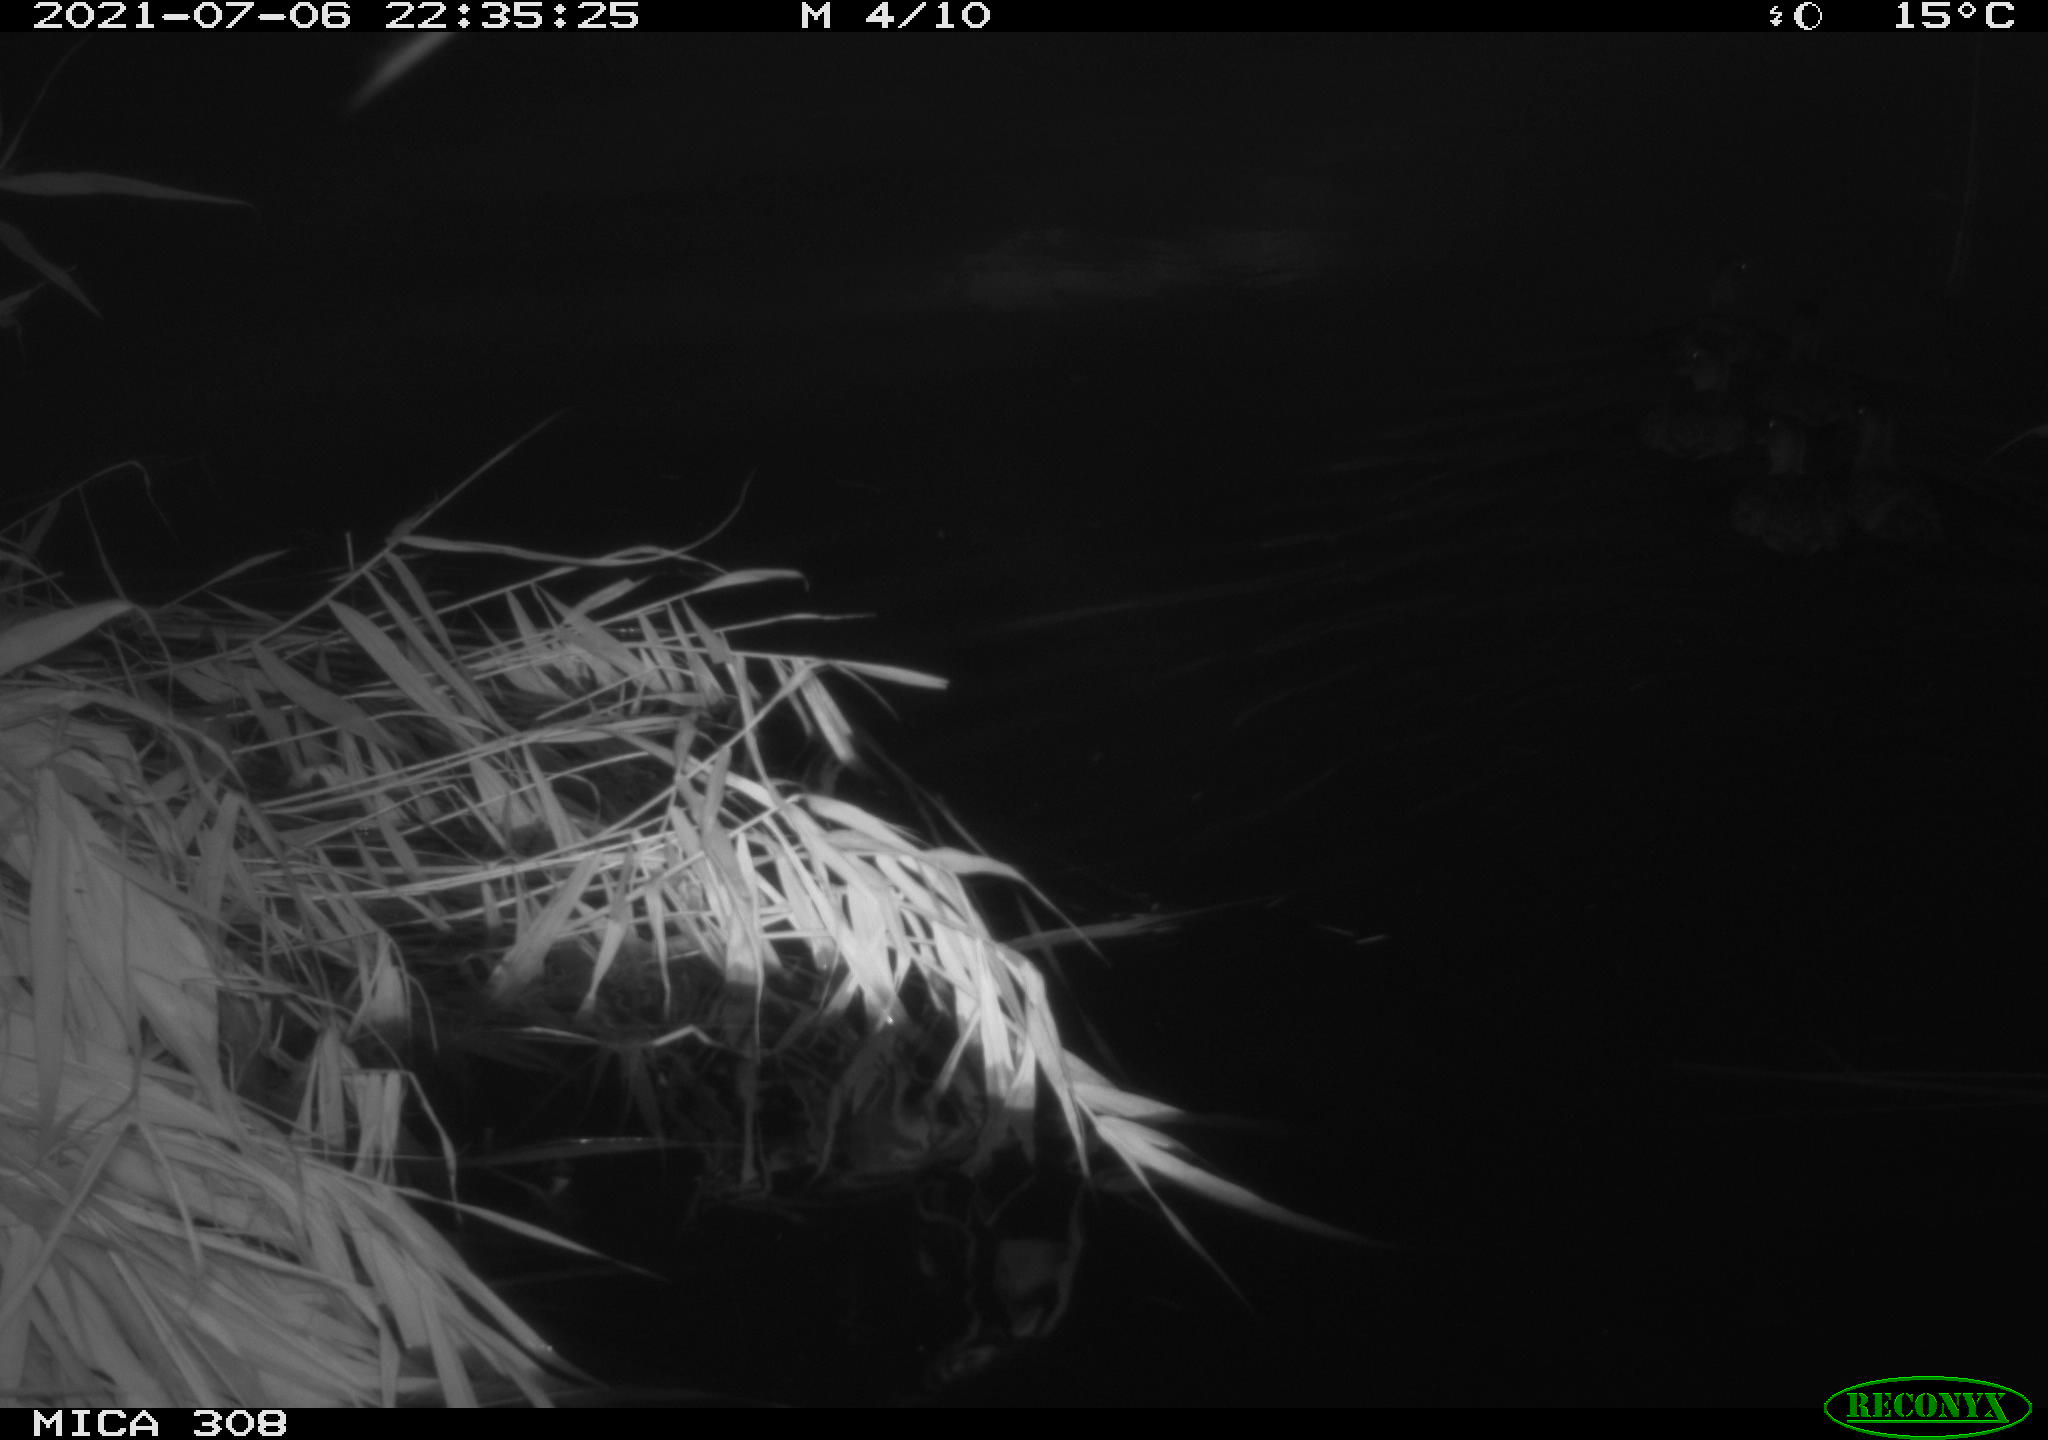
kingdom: Animalia
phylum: Chordata
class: Aves
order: Anseriformes
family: Anatidae
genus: Anas
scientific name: Anas platyrhynchos
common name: Mallard
